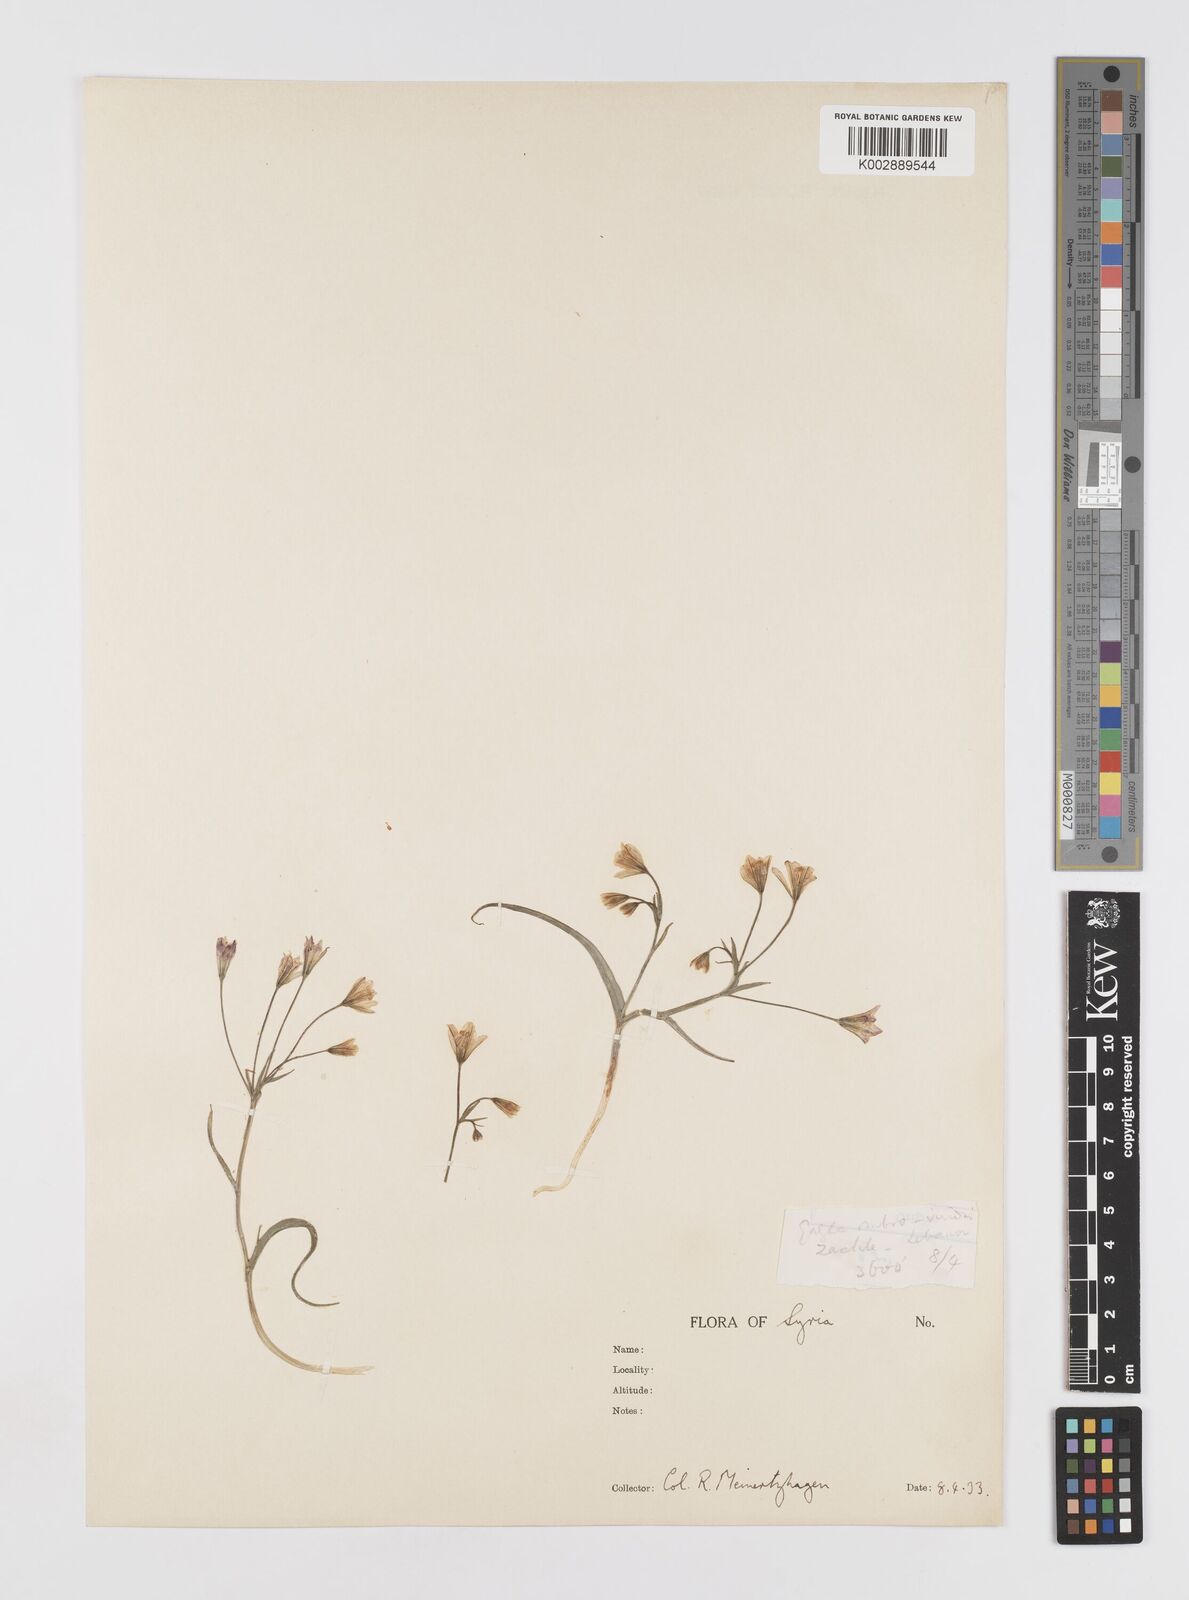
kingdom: Plantae
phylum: Tracheophyta
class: Liliopsida
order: Liliales
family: Liliaceae
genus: Gagea
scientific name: Gagea libanotica
